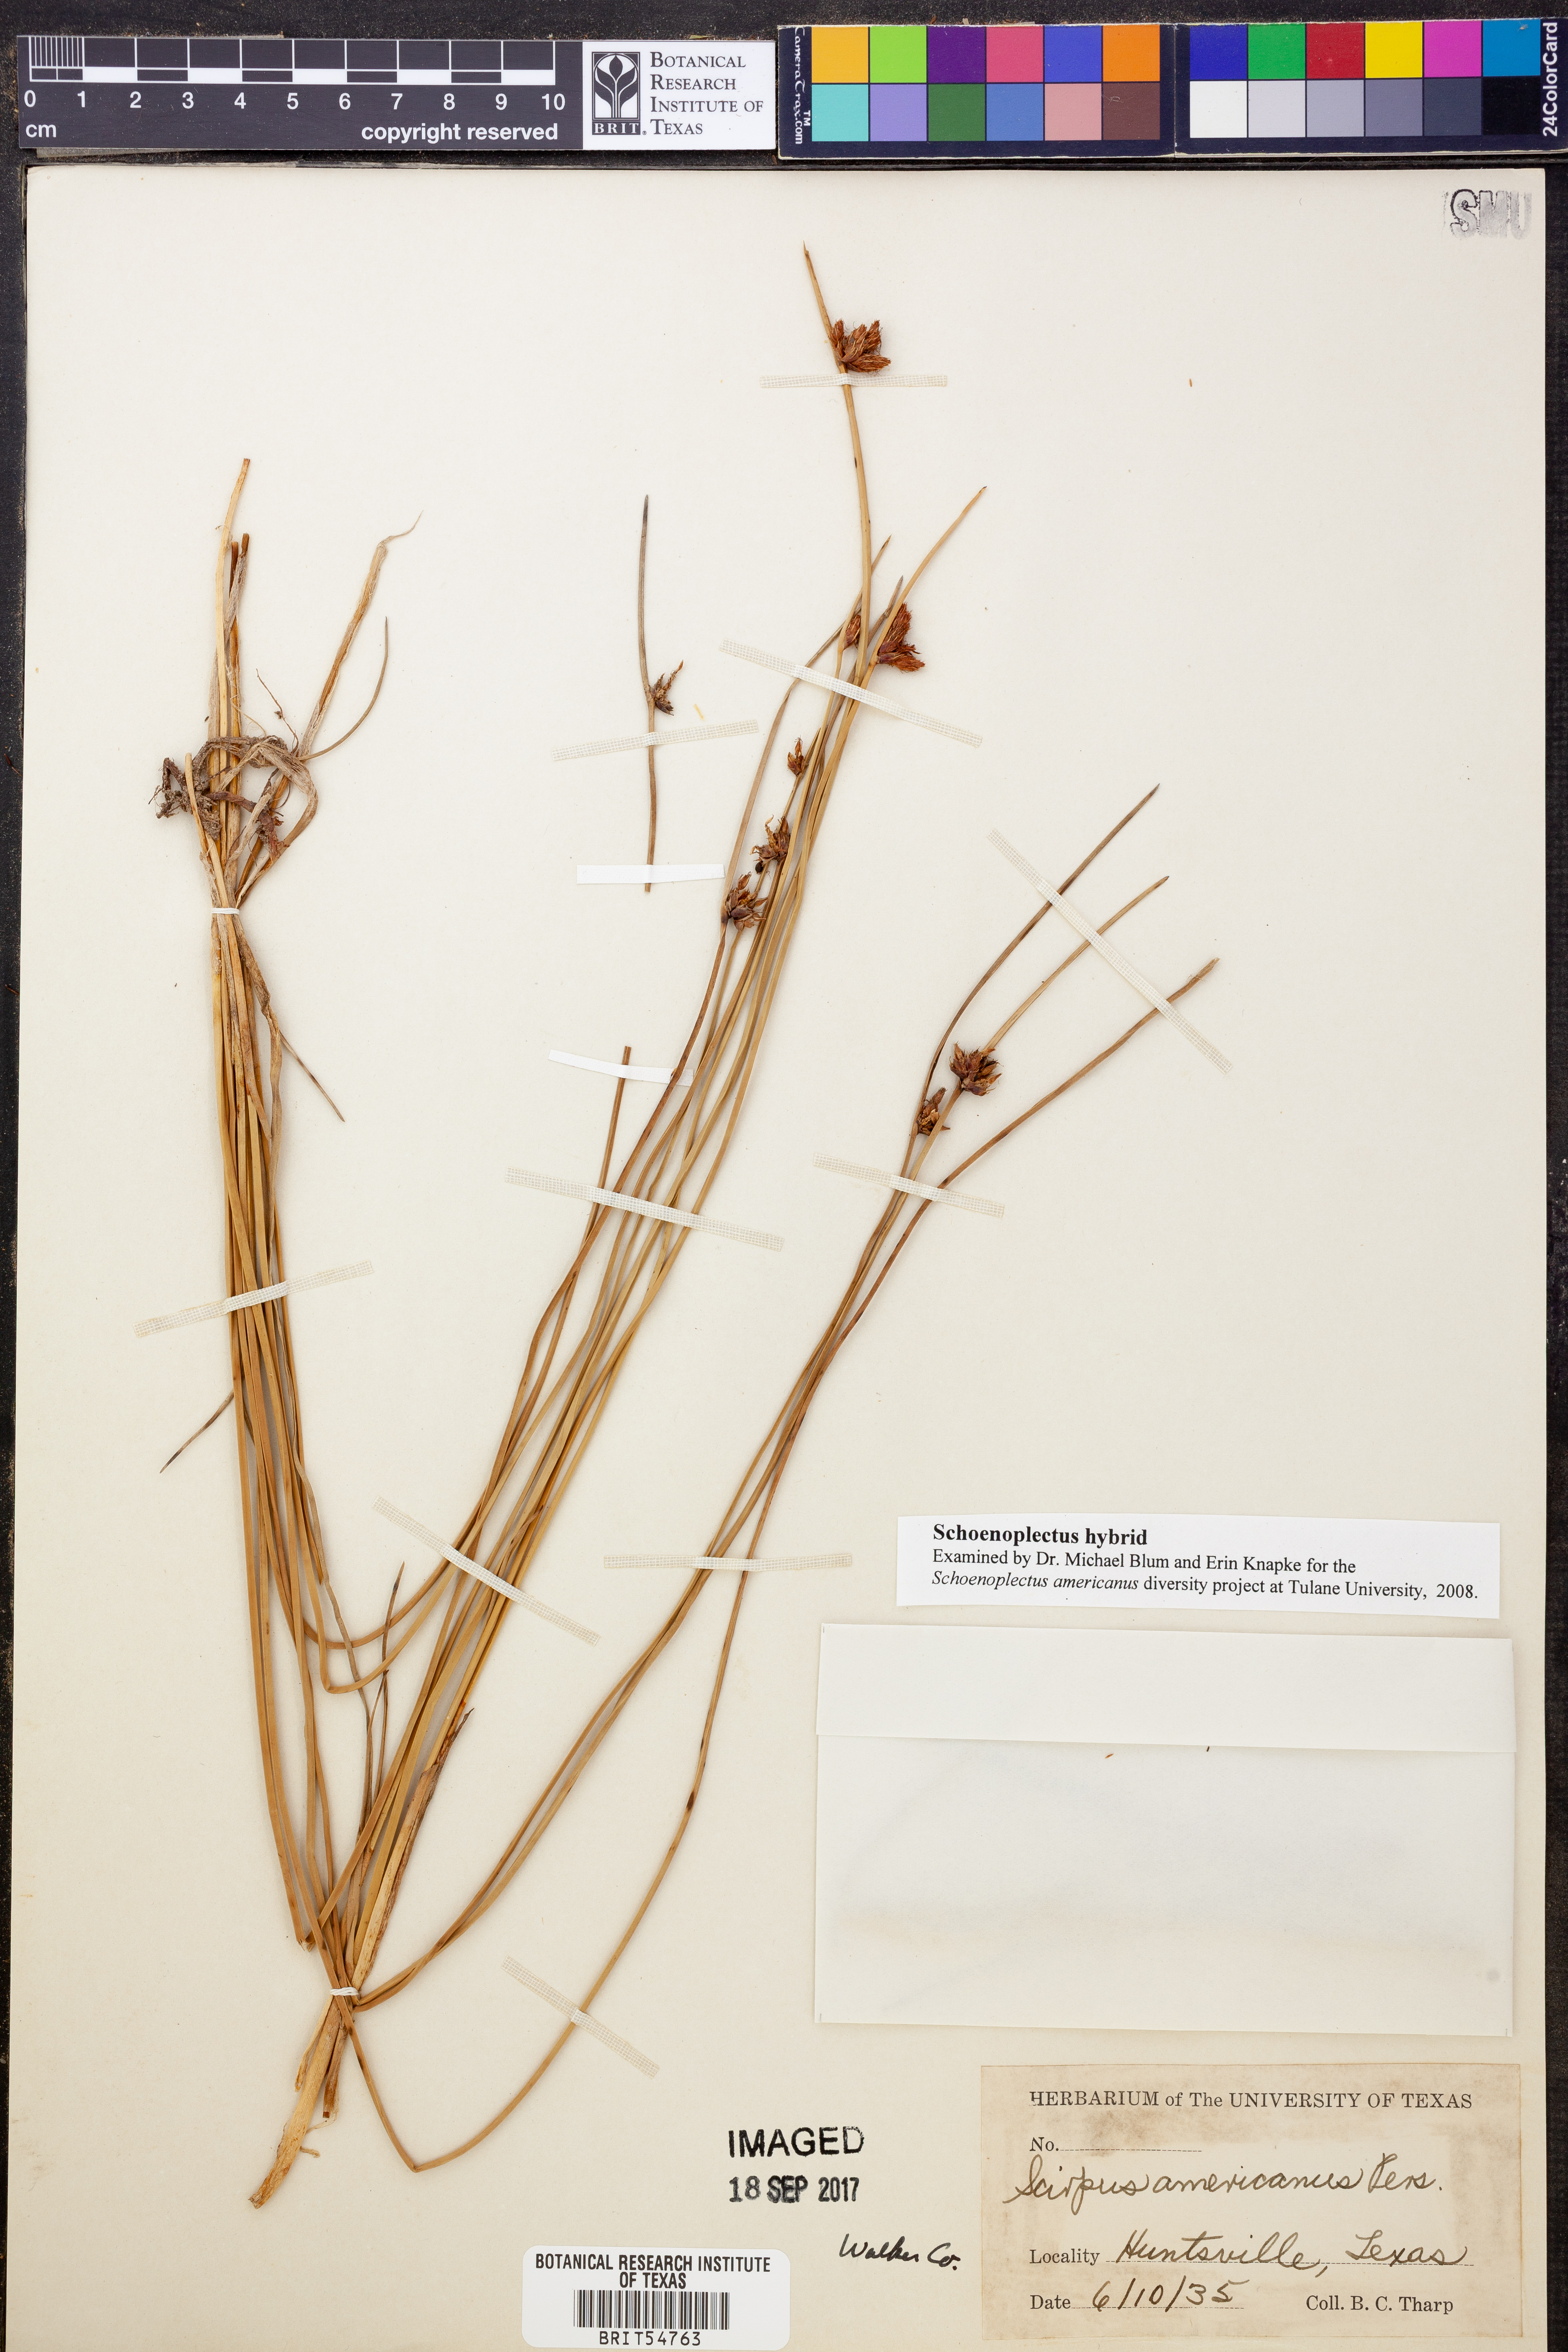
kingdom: Plantae
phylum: Tracheophyta
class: Liliopsida
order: Poales
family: Cyperaceae
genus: Schoenoplectus
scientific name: Schoenoplectus
